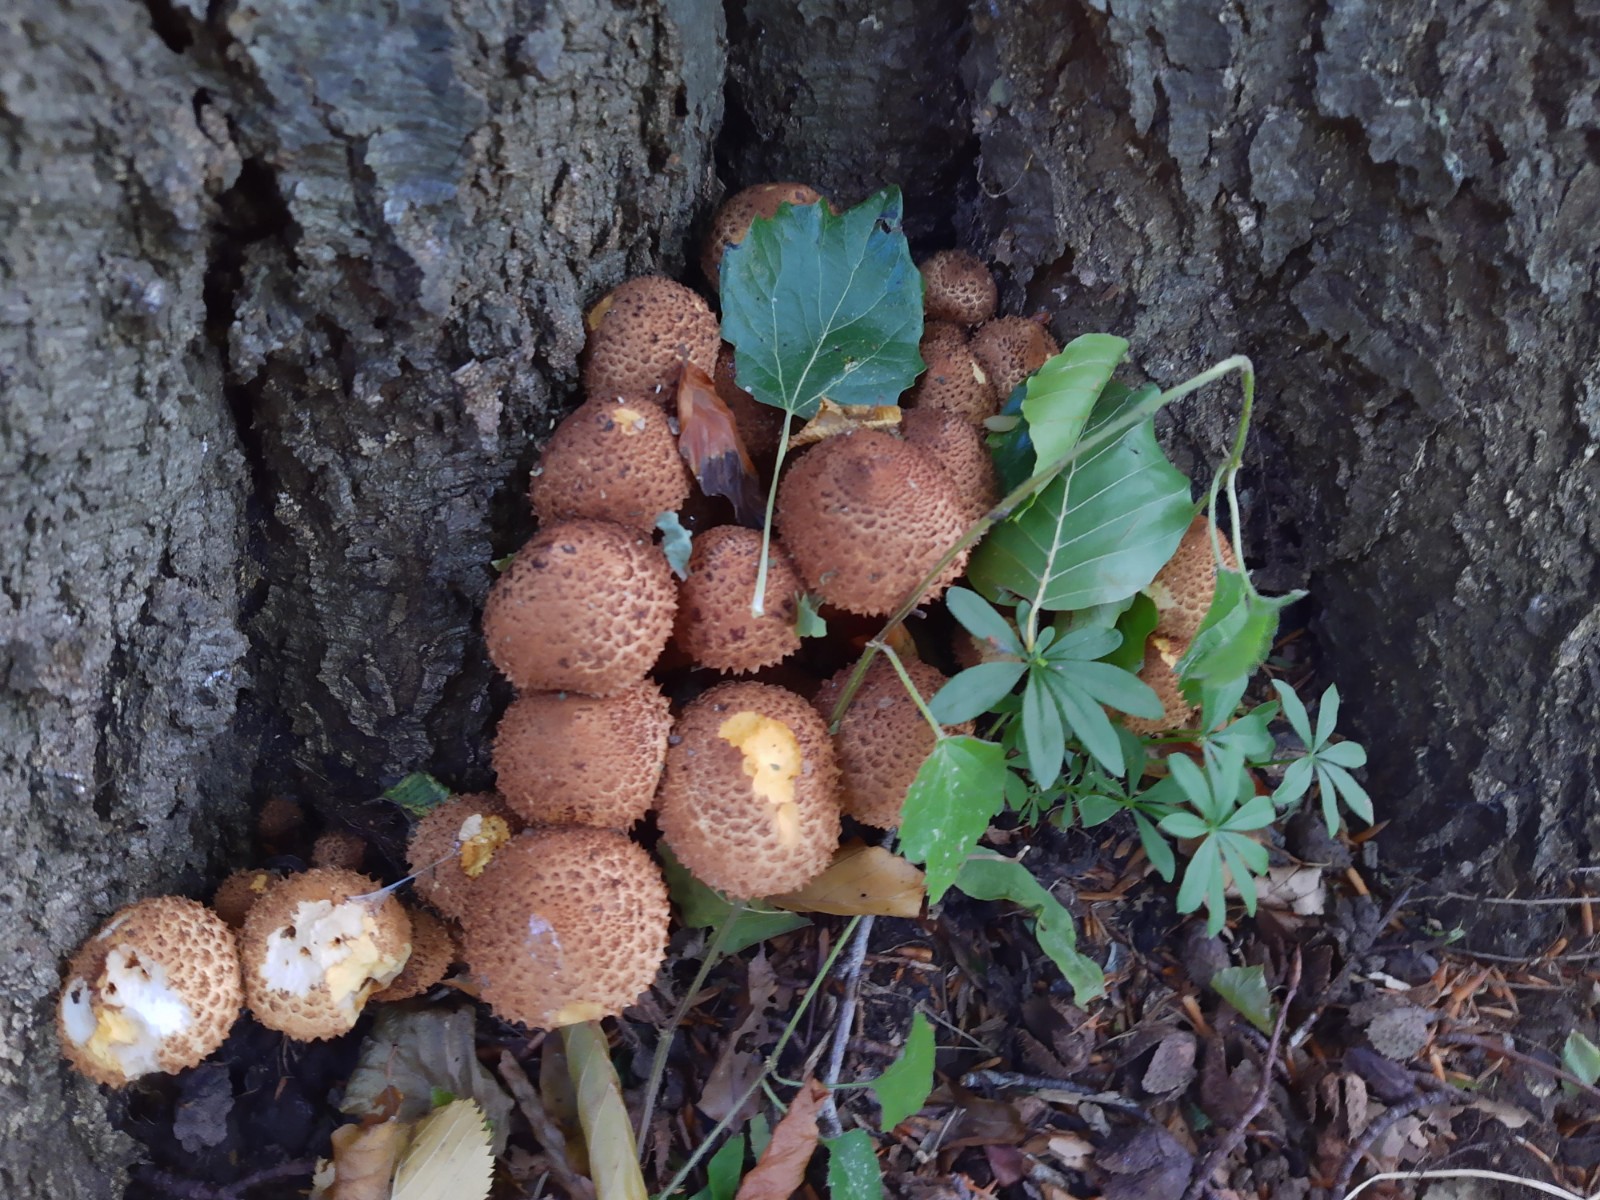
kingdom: Fungi
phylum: Basidiomycota
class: Agaricomycetes
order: Agaricales
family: Strophariaceae
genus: Pholiota
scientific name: Pholiota squarrosa
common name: krumskællet skælhat
